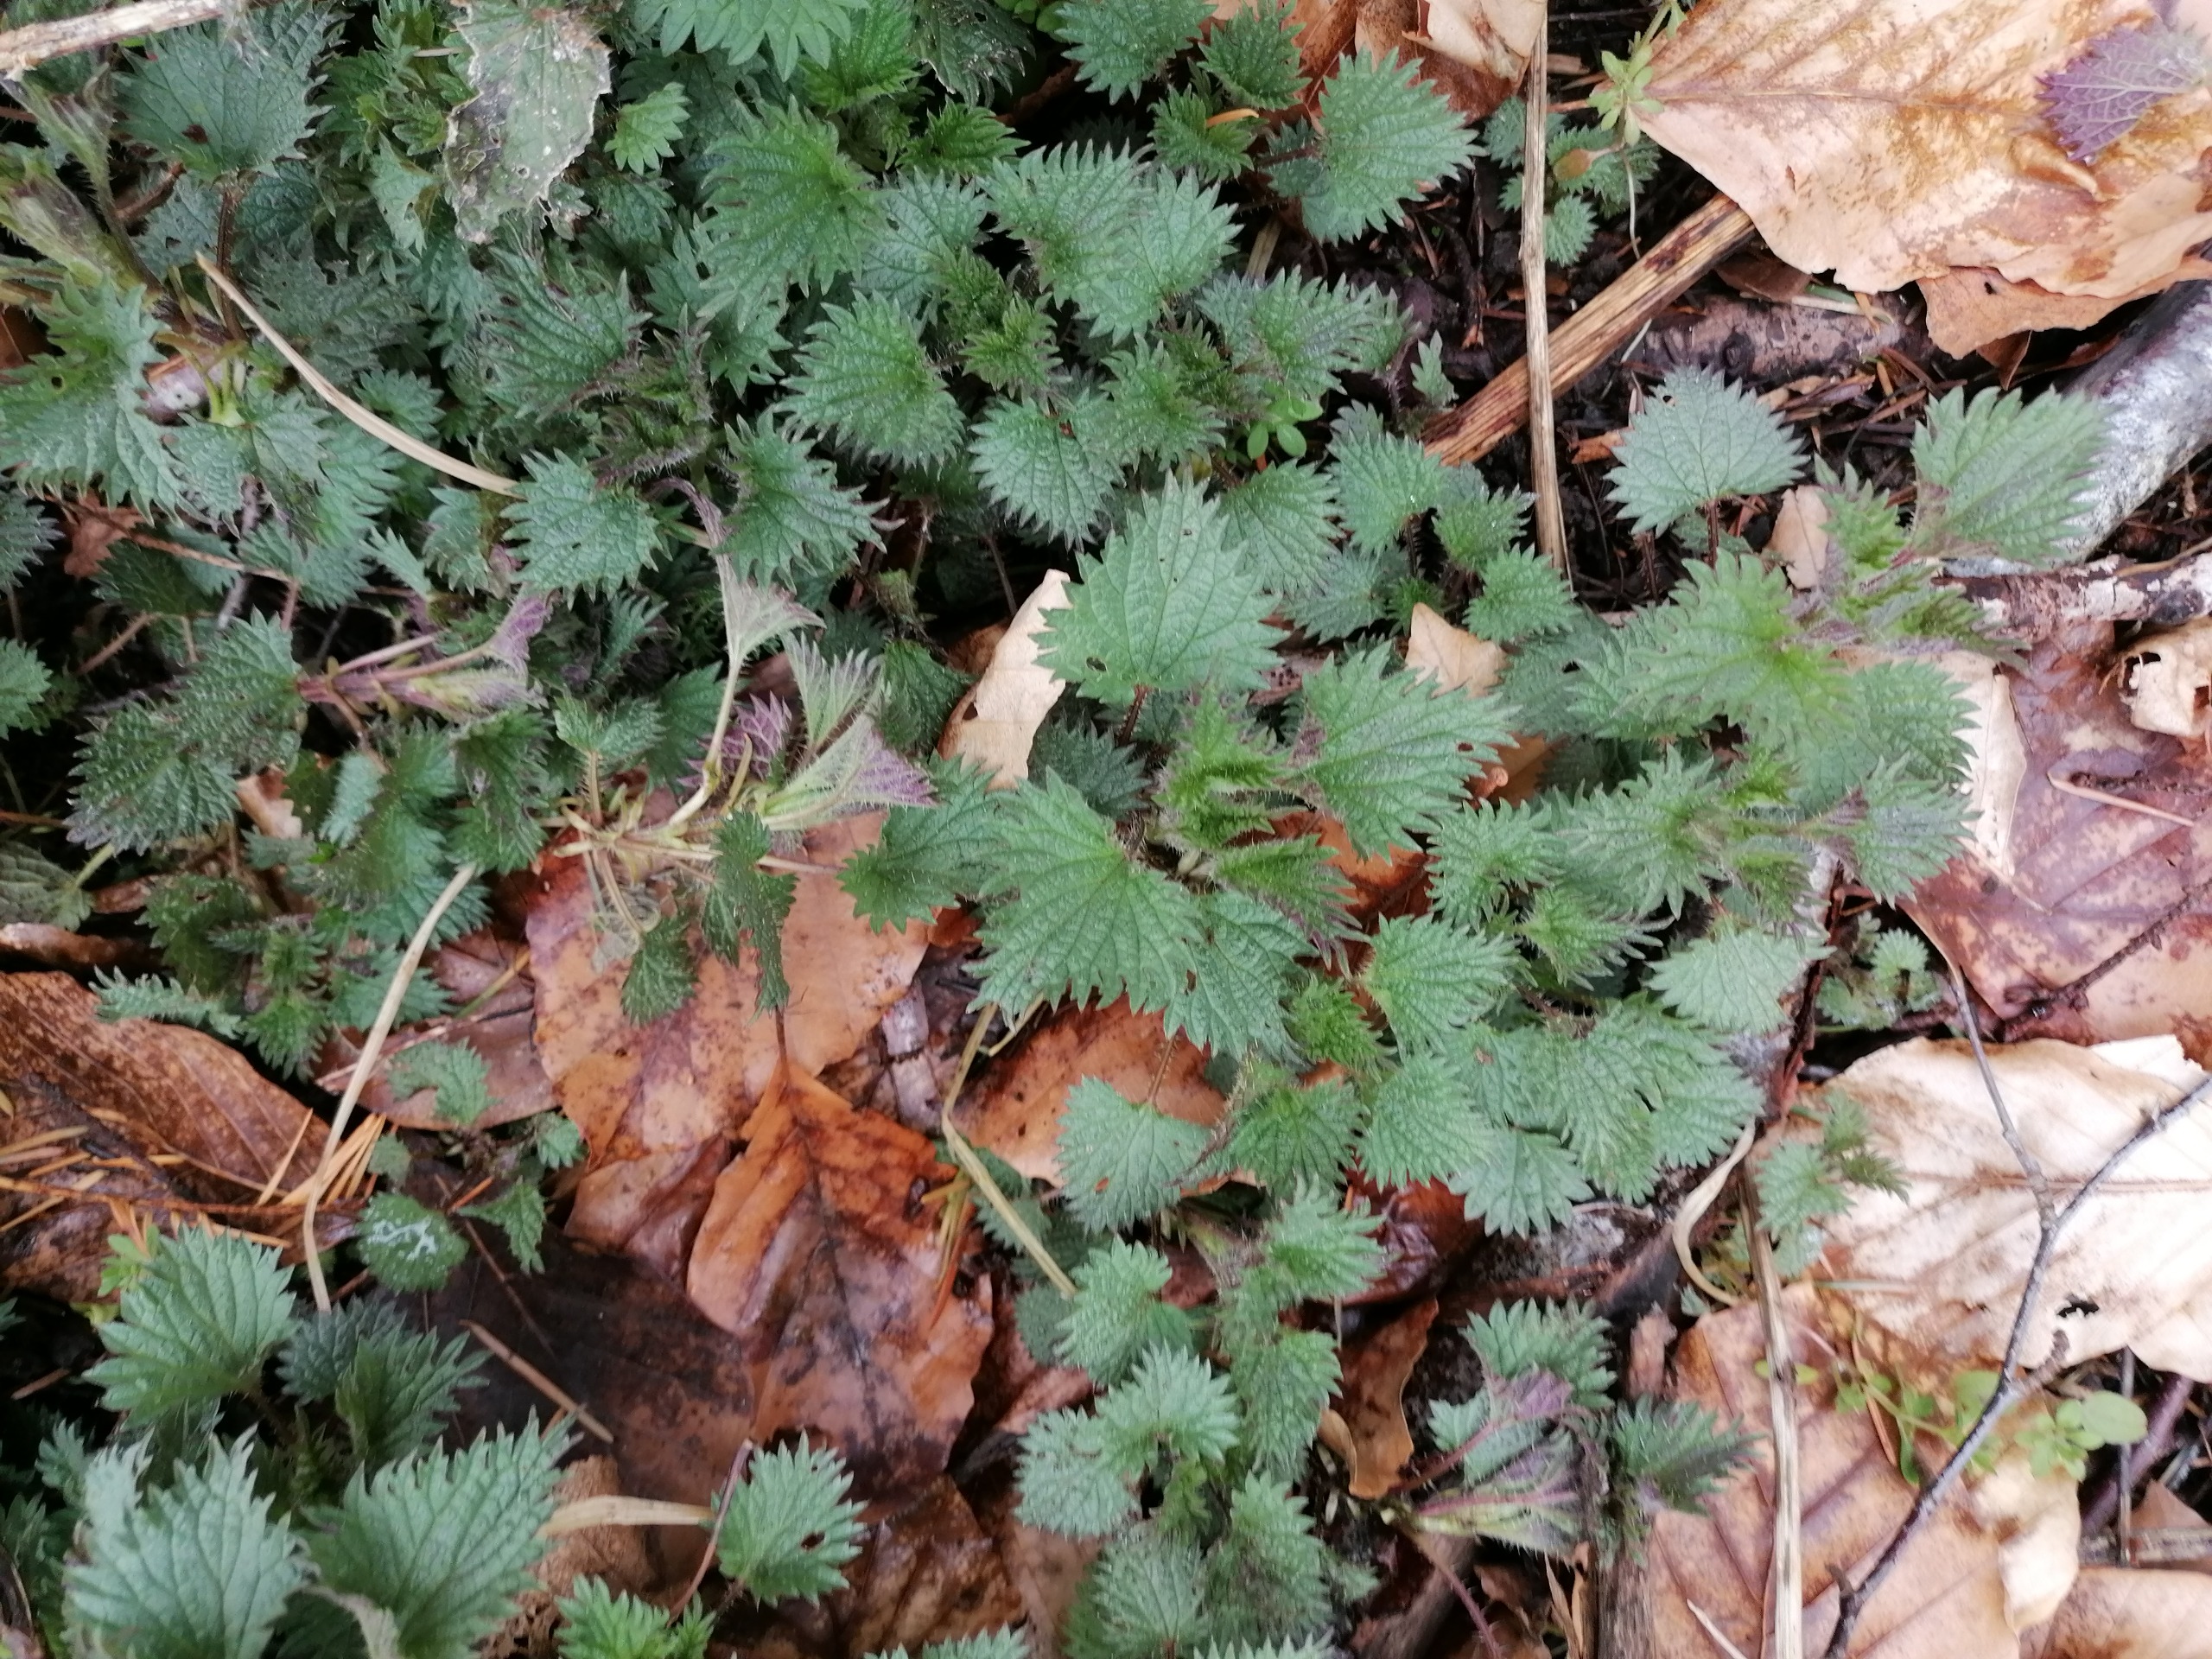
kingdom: Plantae
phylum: Tracheophyta
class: Magnoliopsida
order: Rosales
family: Urticaceae
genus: Urtica
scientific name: Urtica dioica
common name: Stor nælde
